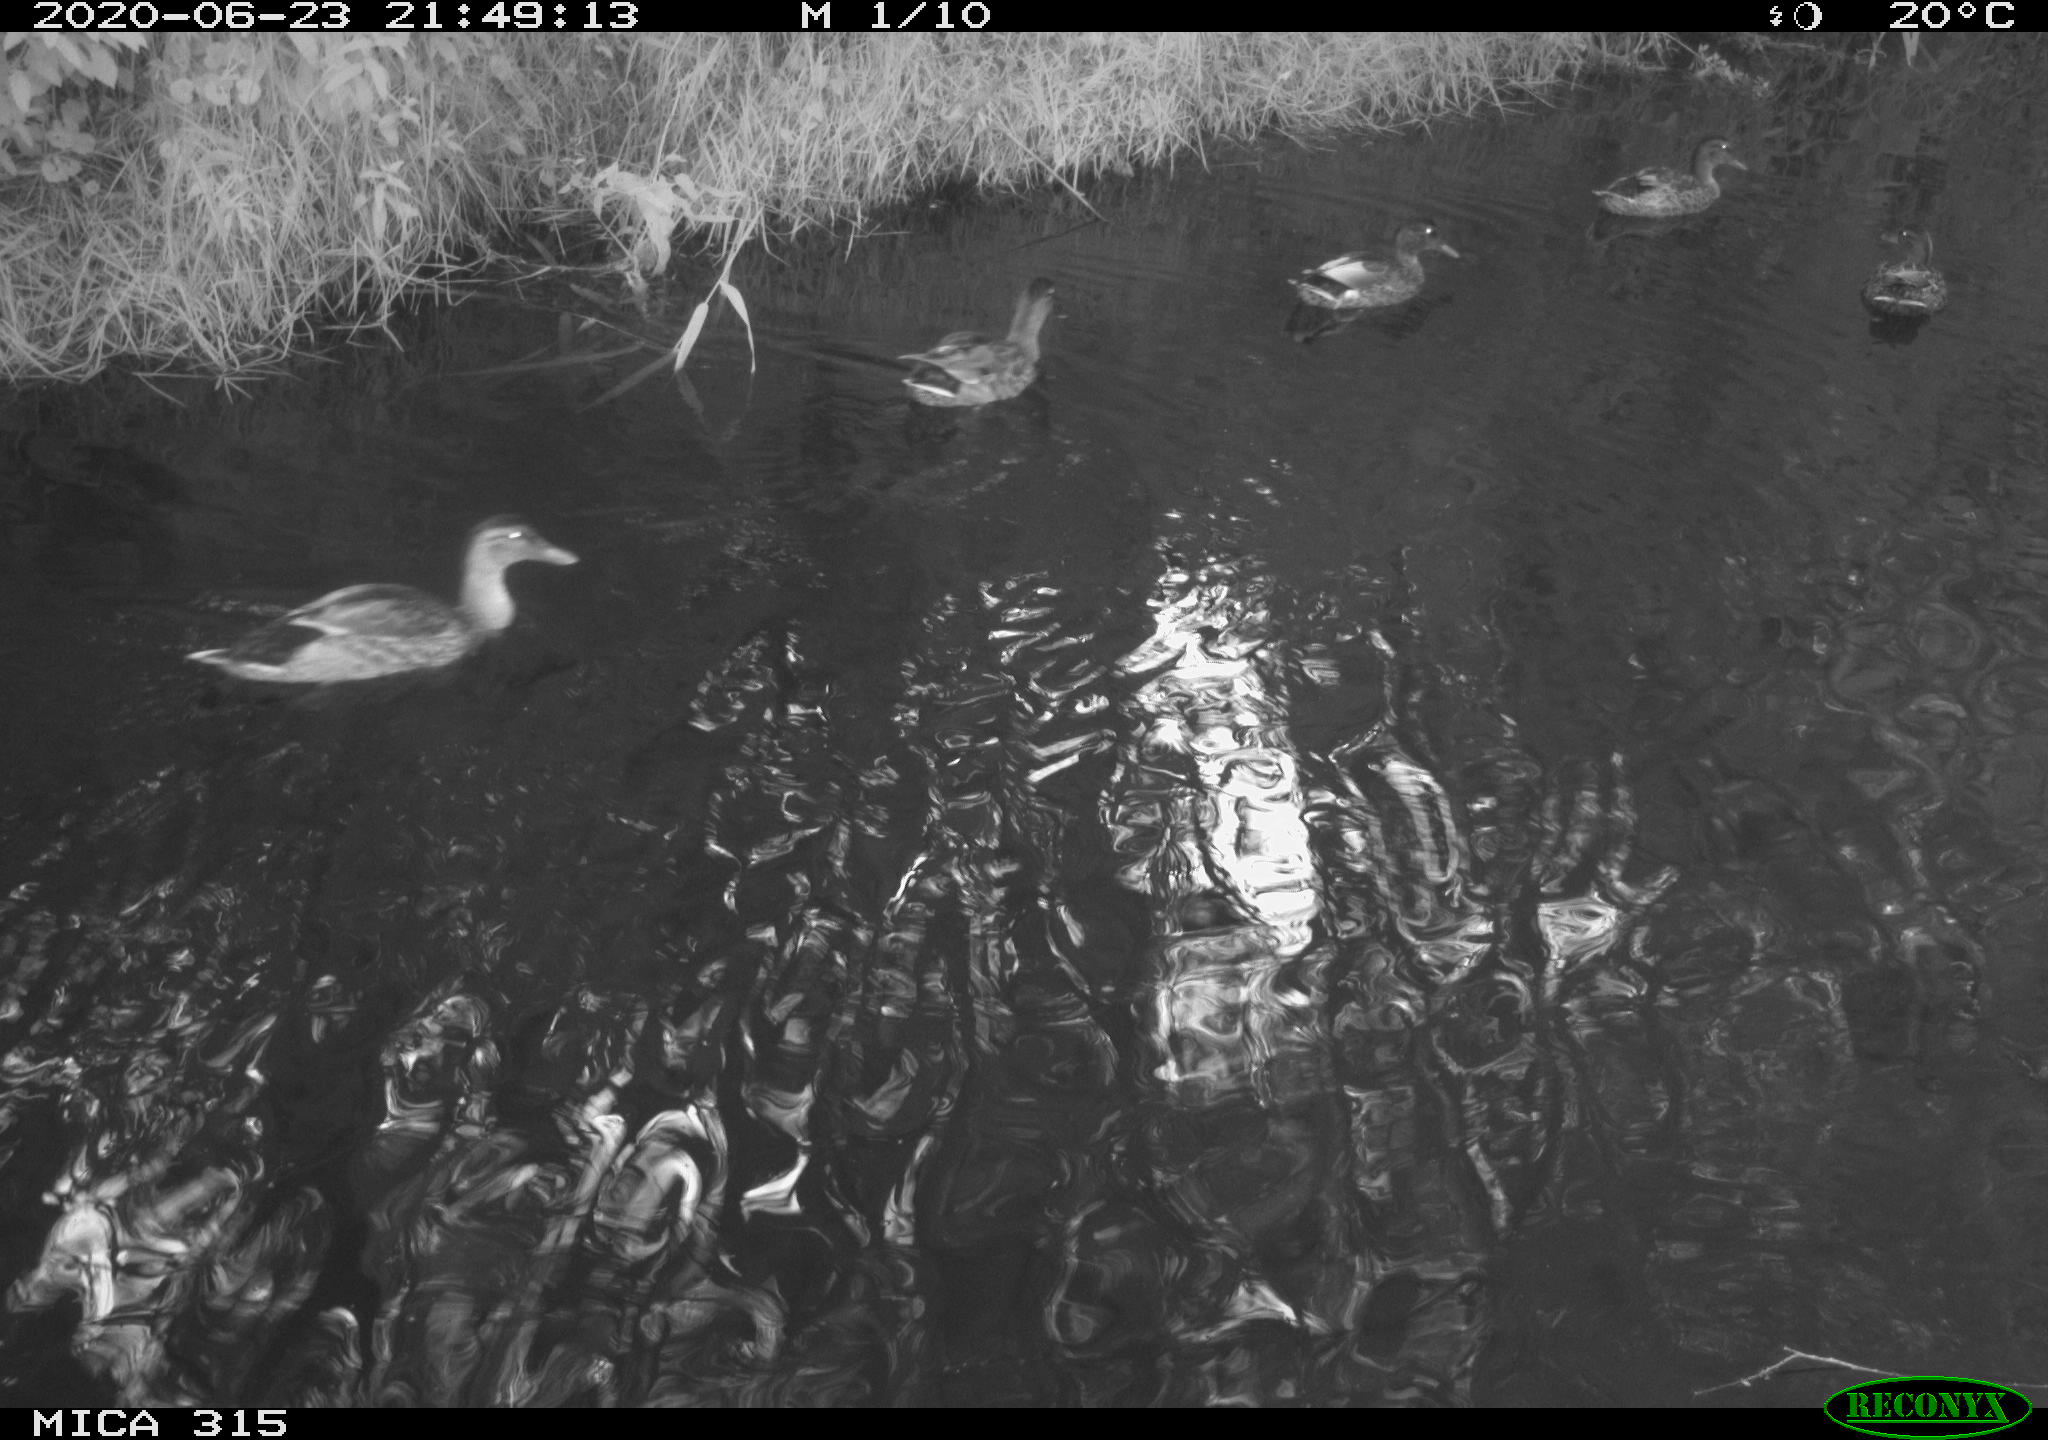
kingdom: Animalia
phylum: Chordata
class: Aves
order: Anseriformes
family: Anatidae
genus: Anas
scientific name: Anas platyrhynchos
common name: Mallard
